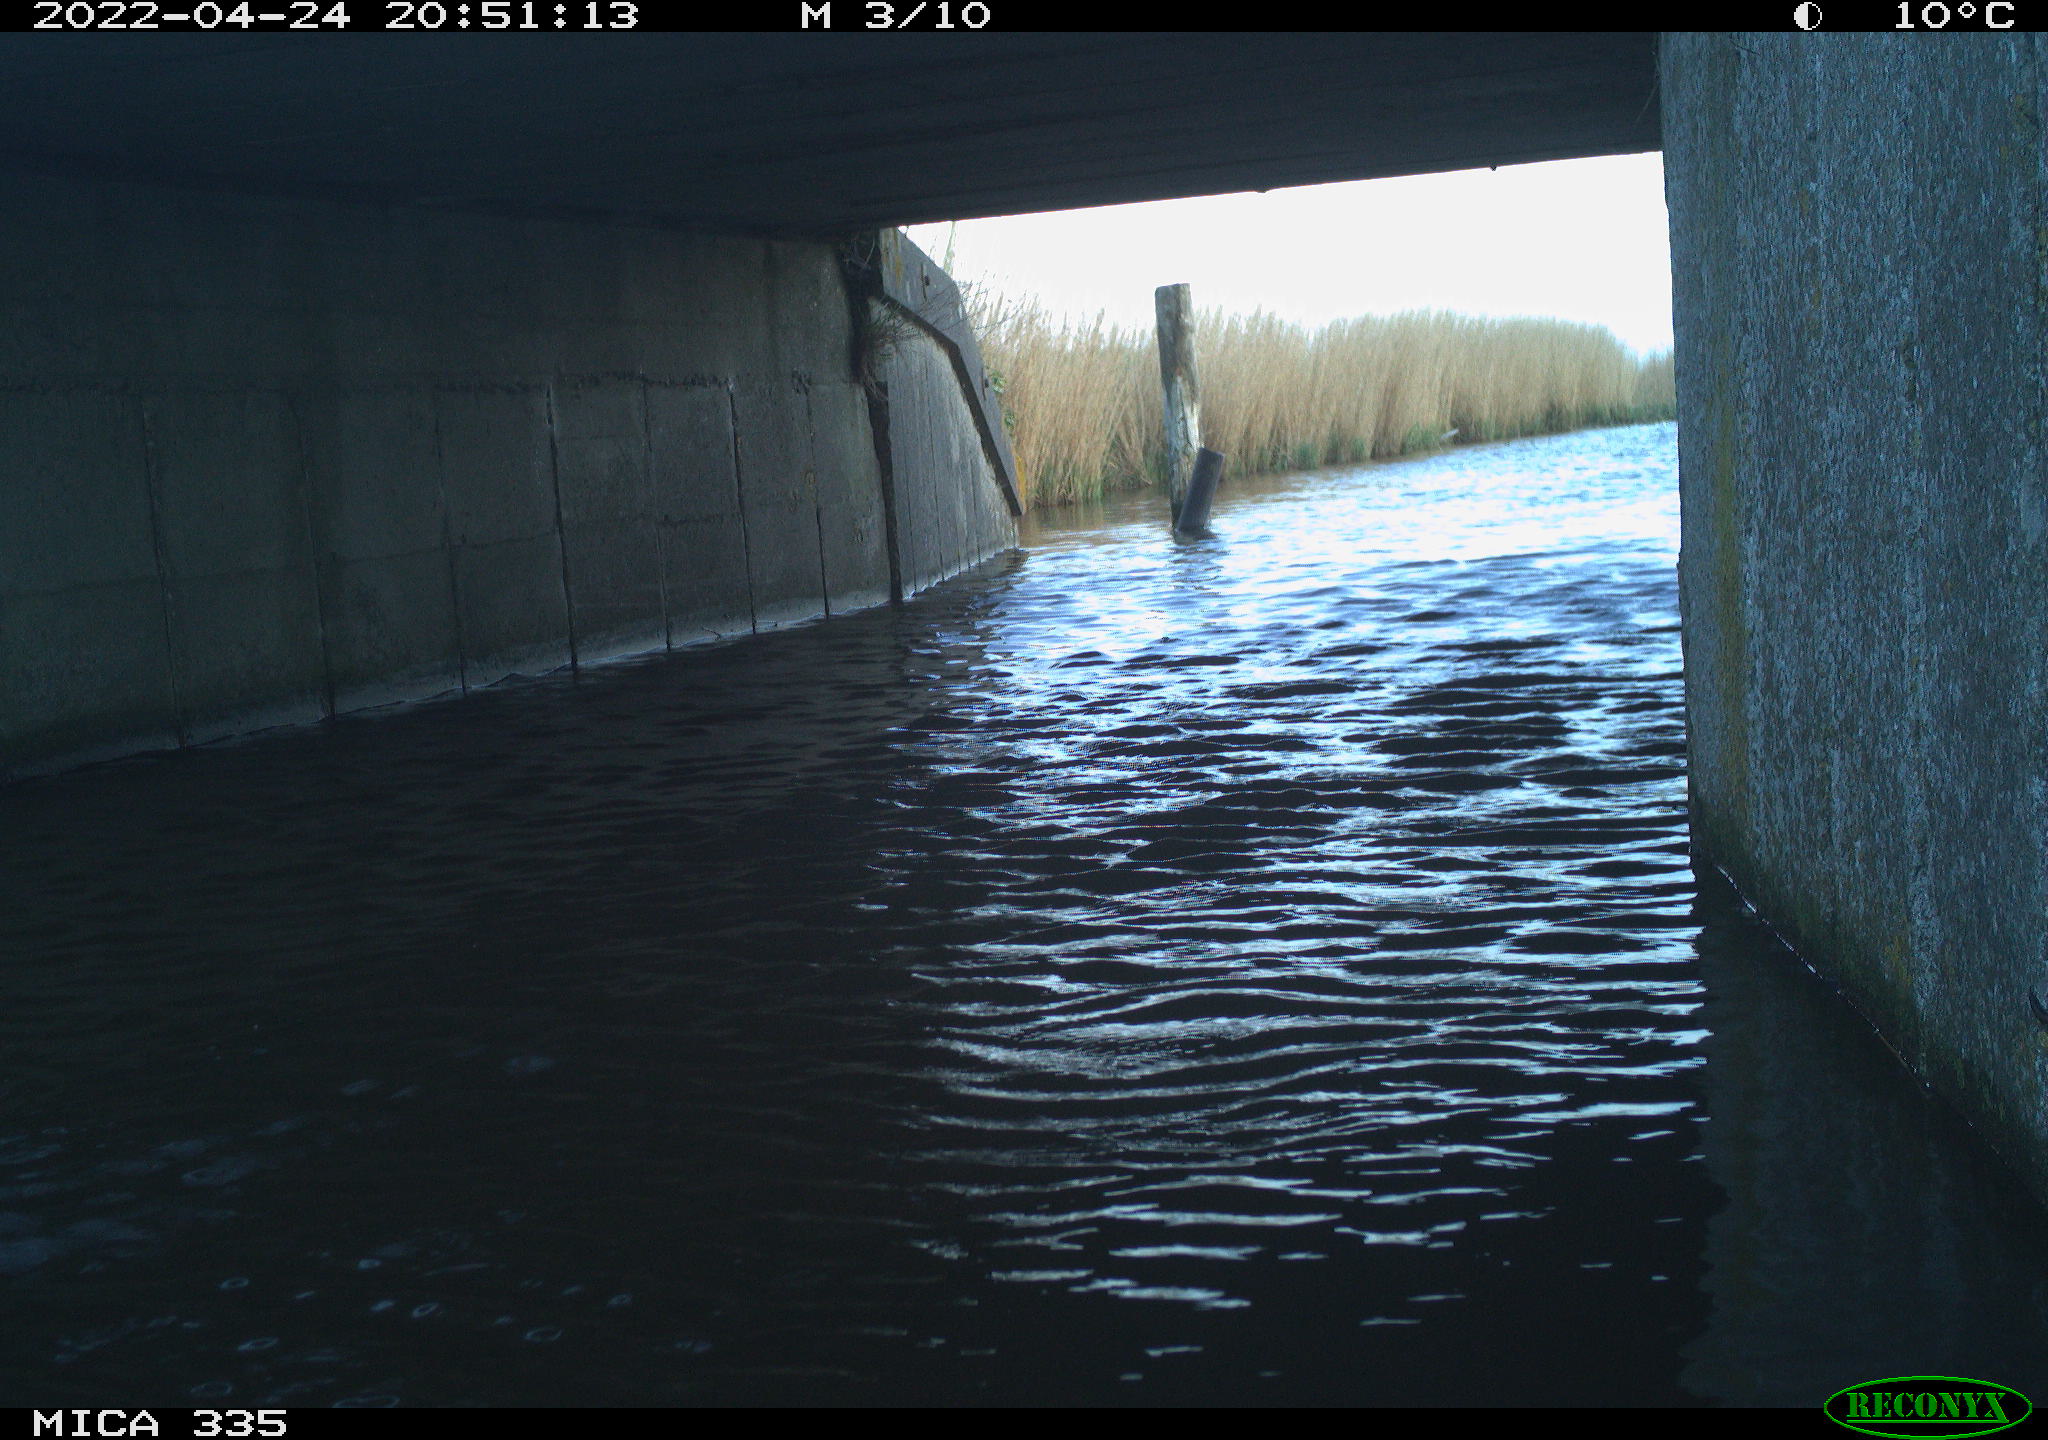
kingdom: Animalia
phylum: Chordata
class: Aves
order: Anseriformes
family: Anatidae
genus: Anas
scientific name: Anas platyrhynchos
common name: Mallard
